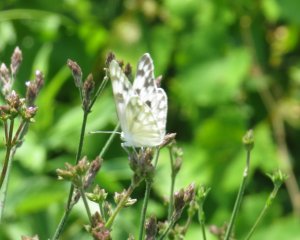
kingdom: Animalia
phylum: Arthropoda
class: Insecta
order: Lepidoptera
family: Pieridae
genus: Pontia
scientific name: Pontia protodice
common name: Checkered White
